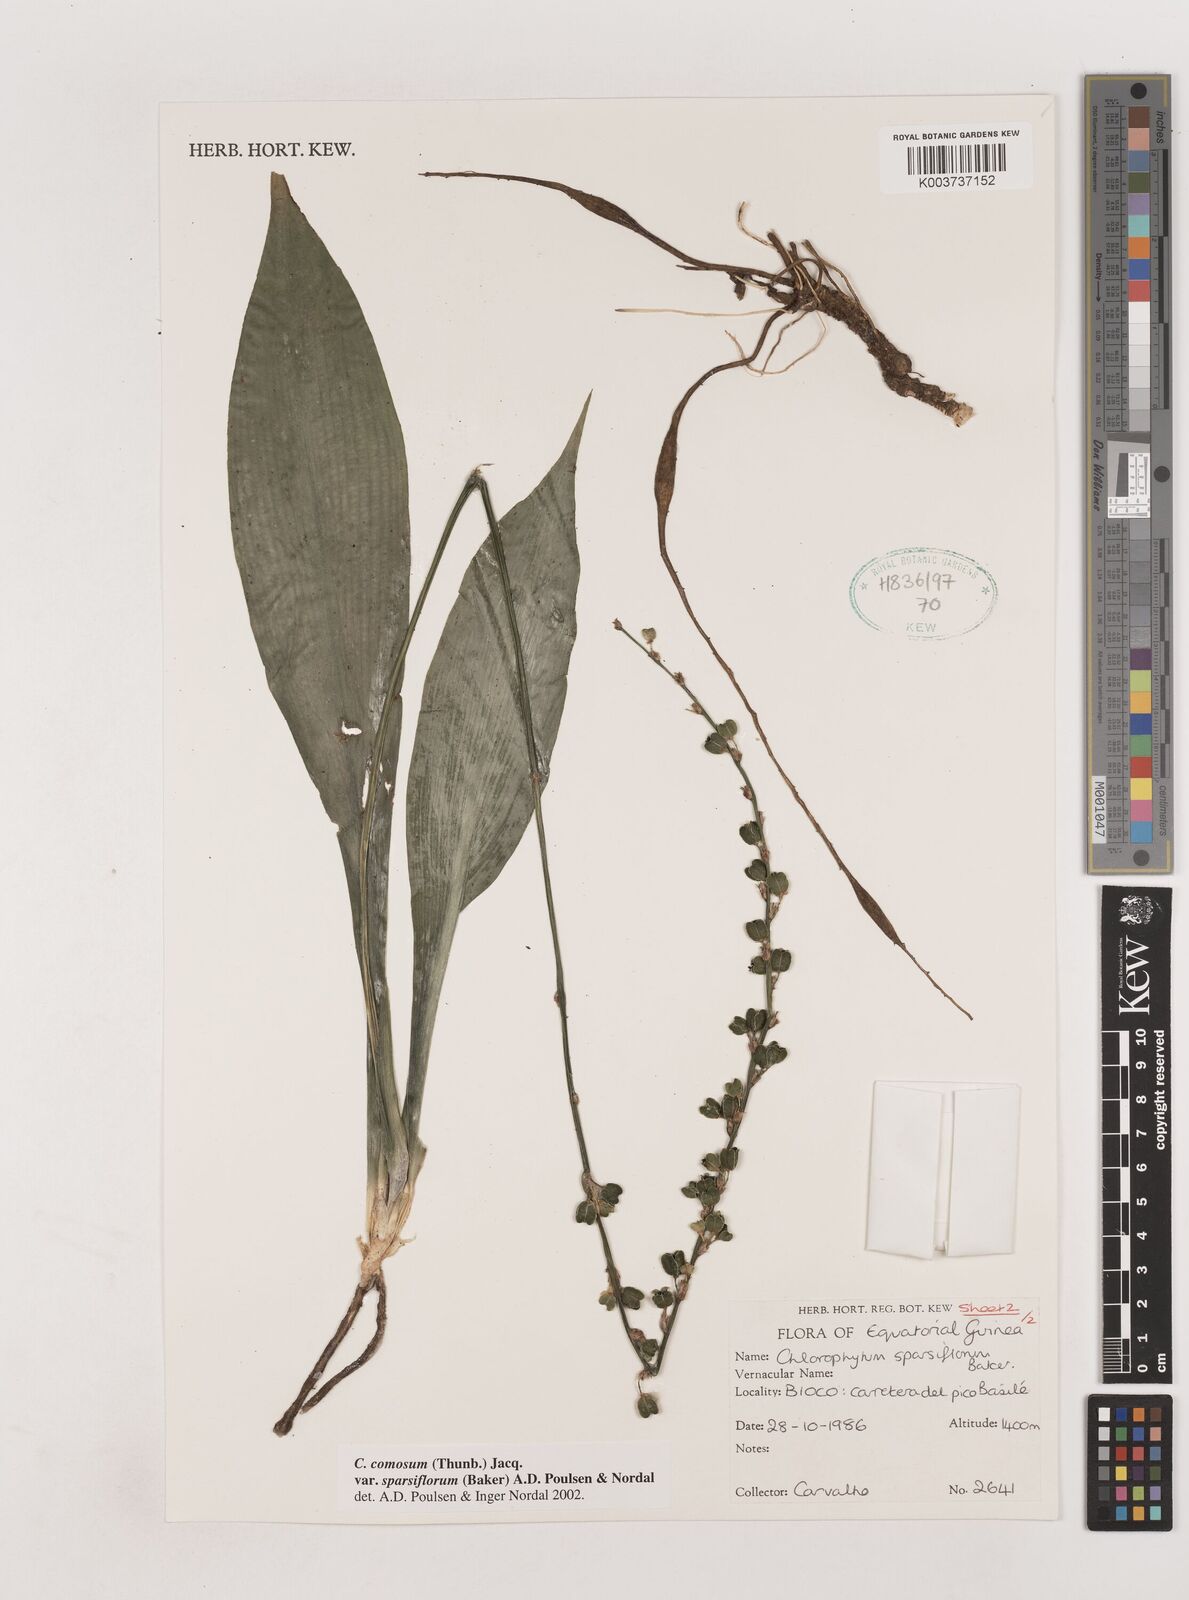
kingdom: Plantae
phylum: Tracheophyta
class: Liliopsida
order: Asparagales
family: Asparagaceae
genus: Chlorophytum
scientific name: Chlorophytum sparsiflorum
